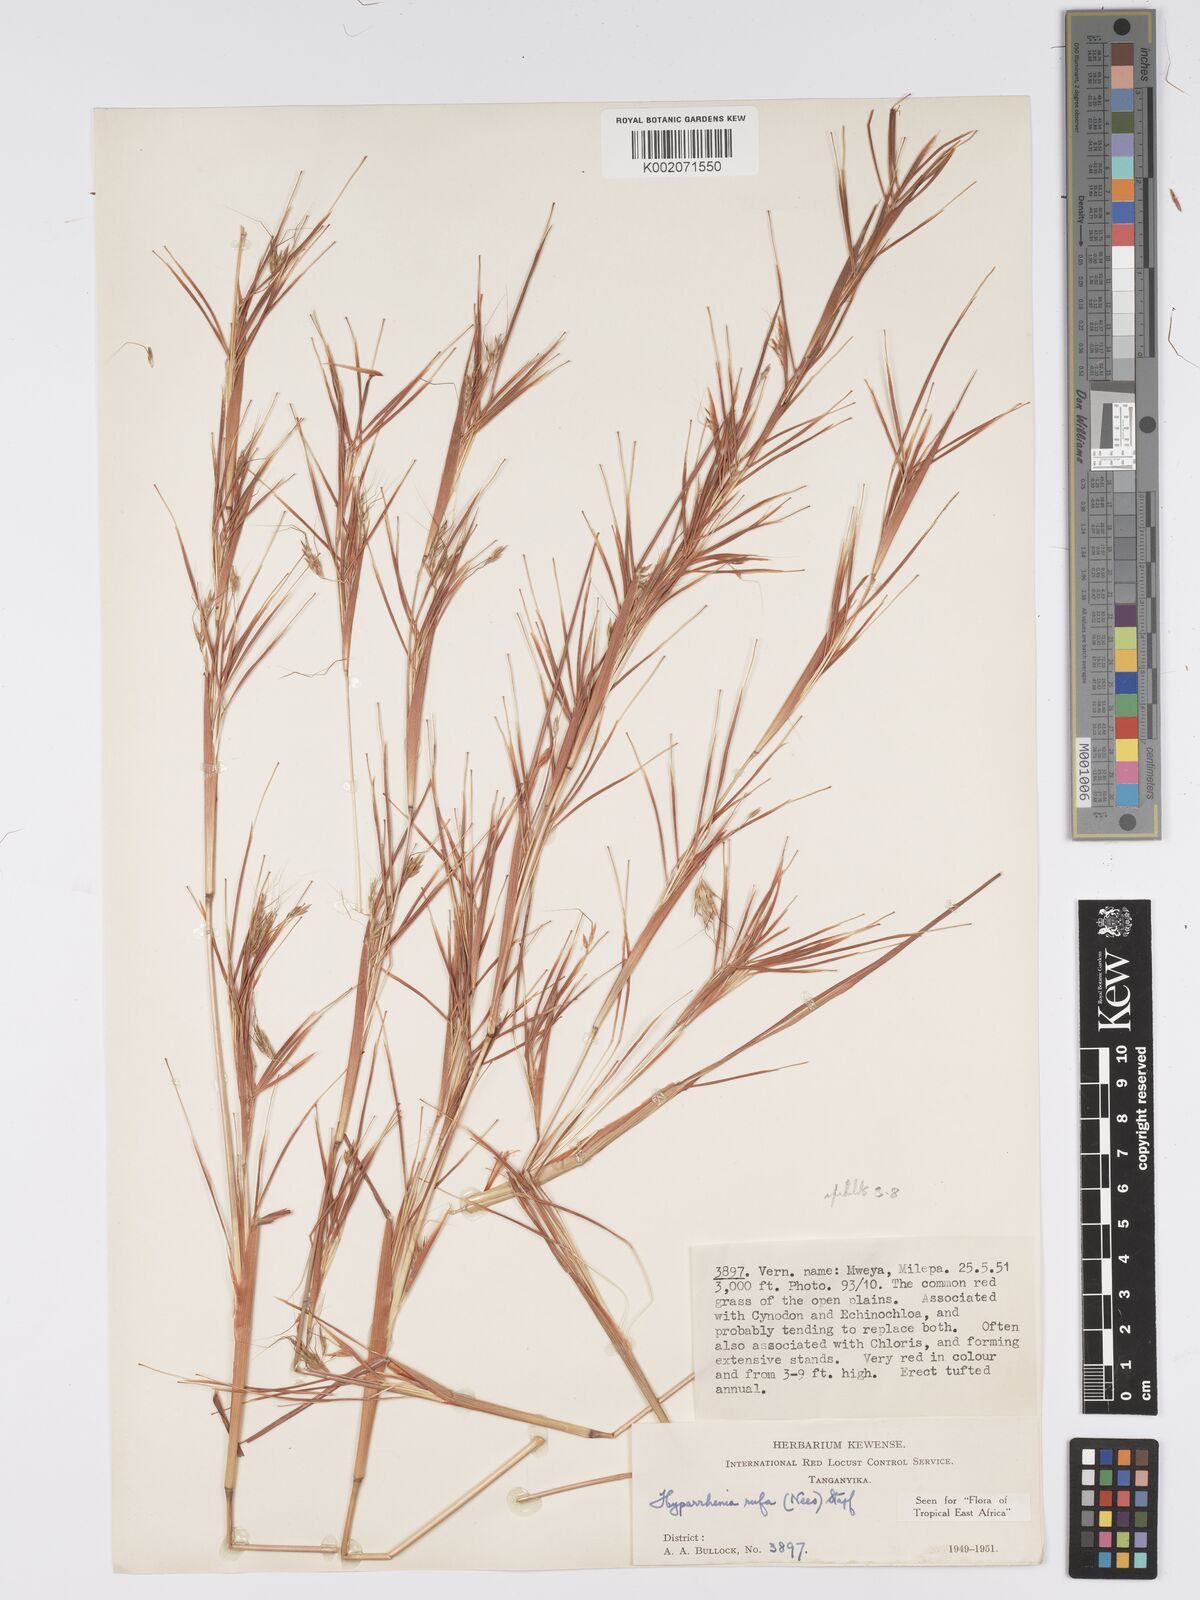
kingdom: Plantae
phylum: Tracheophyta
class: Liliopsida
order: Poales
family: Poaceae
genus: Hyparrhenia
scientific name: Hyparrhenia rufa
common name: Jaraguagrass
